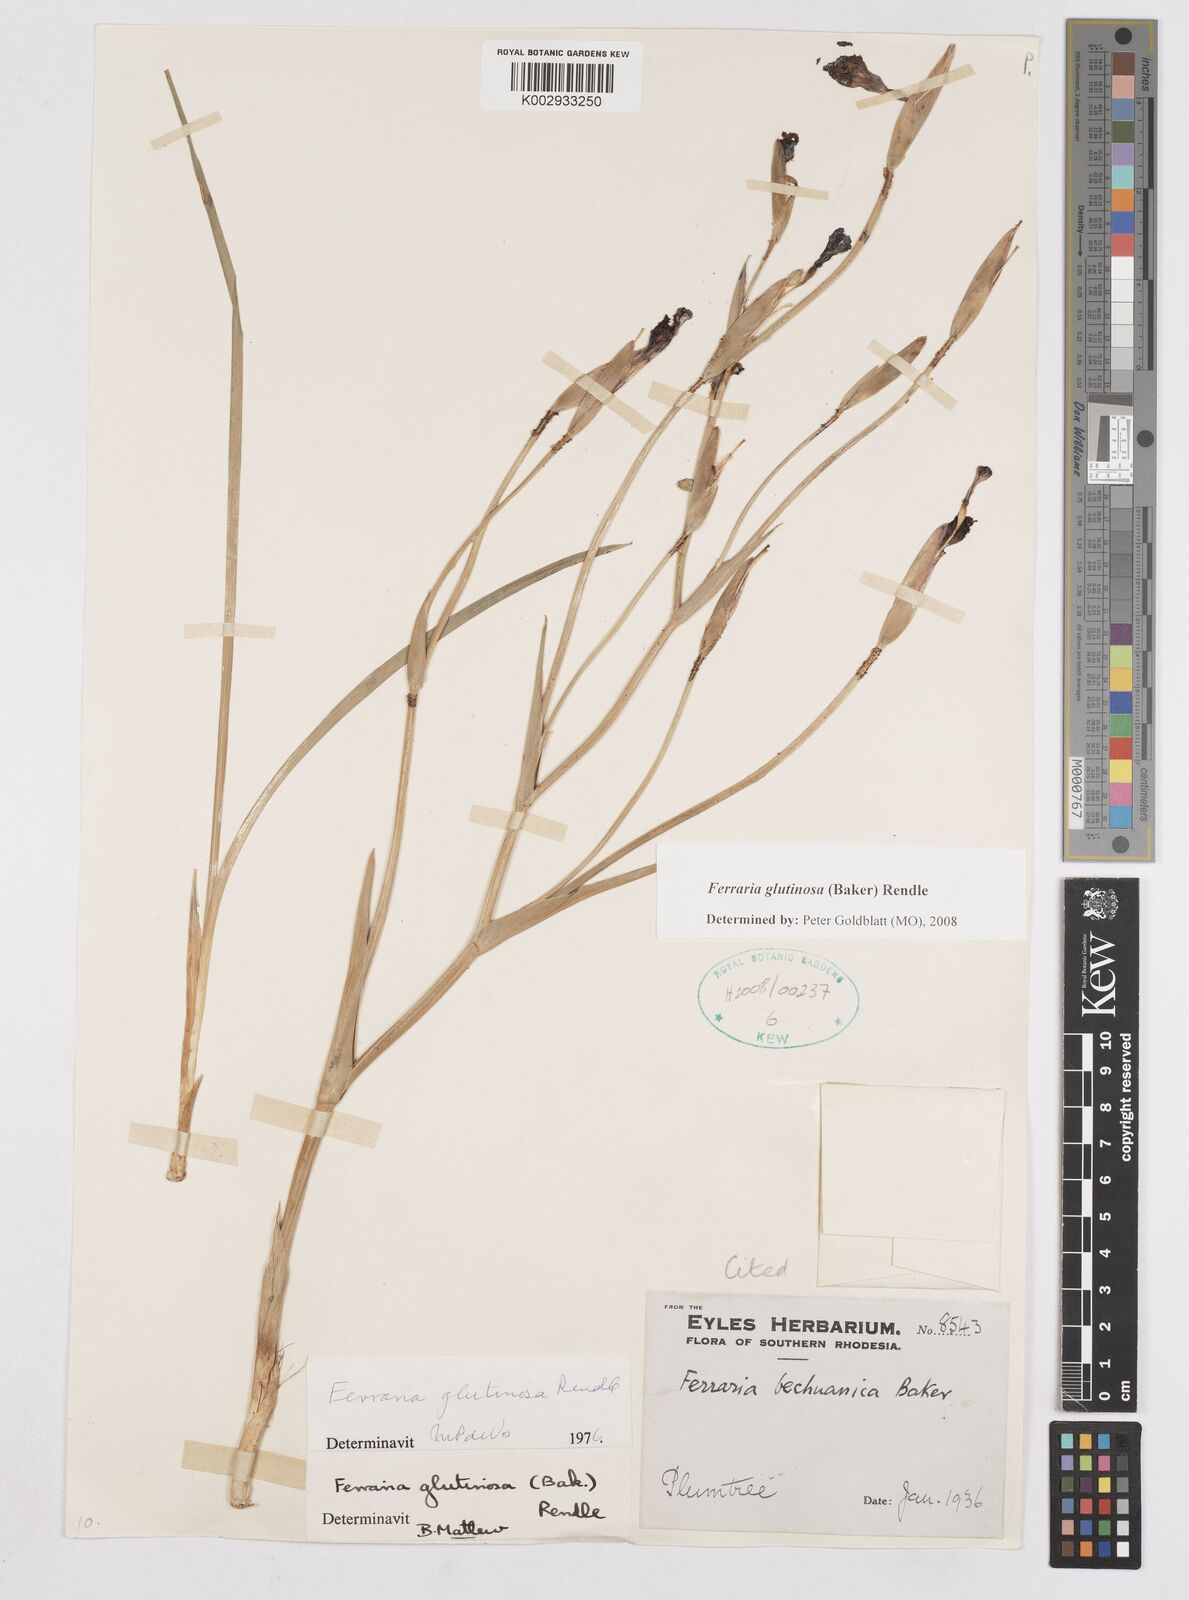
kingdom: Plantae
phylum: Tracheophyta
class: Liliopsida
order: Asparagales
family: Iridaceae
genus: Ferraria
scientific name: Ferraria glutinosa
